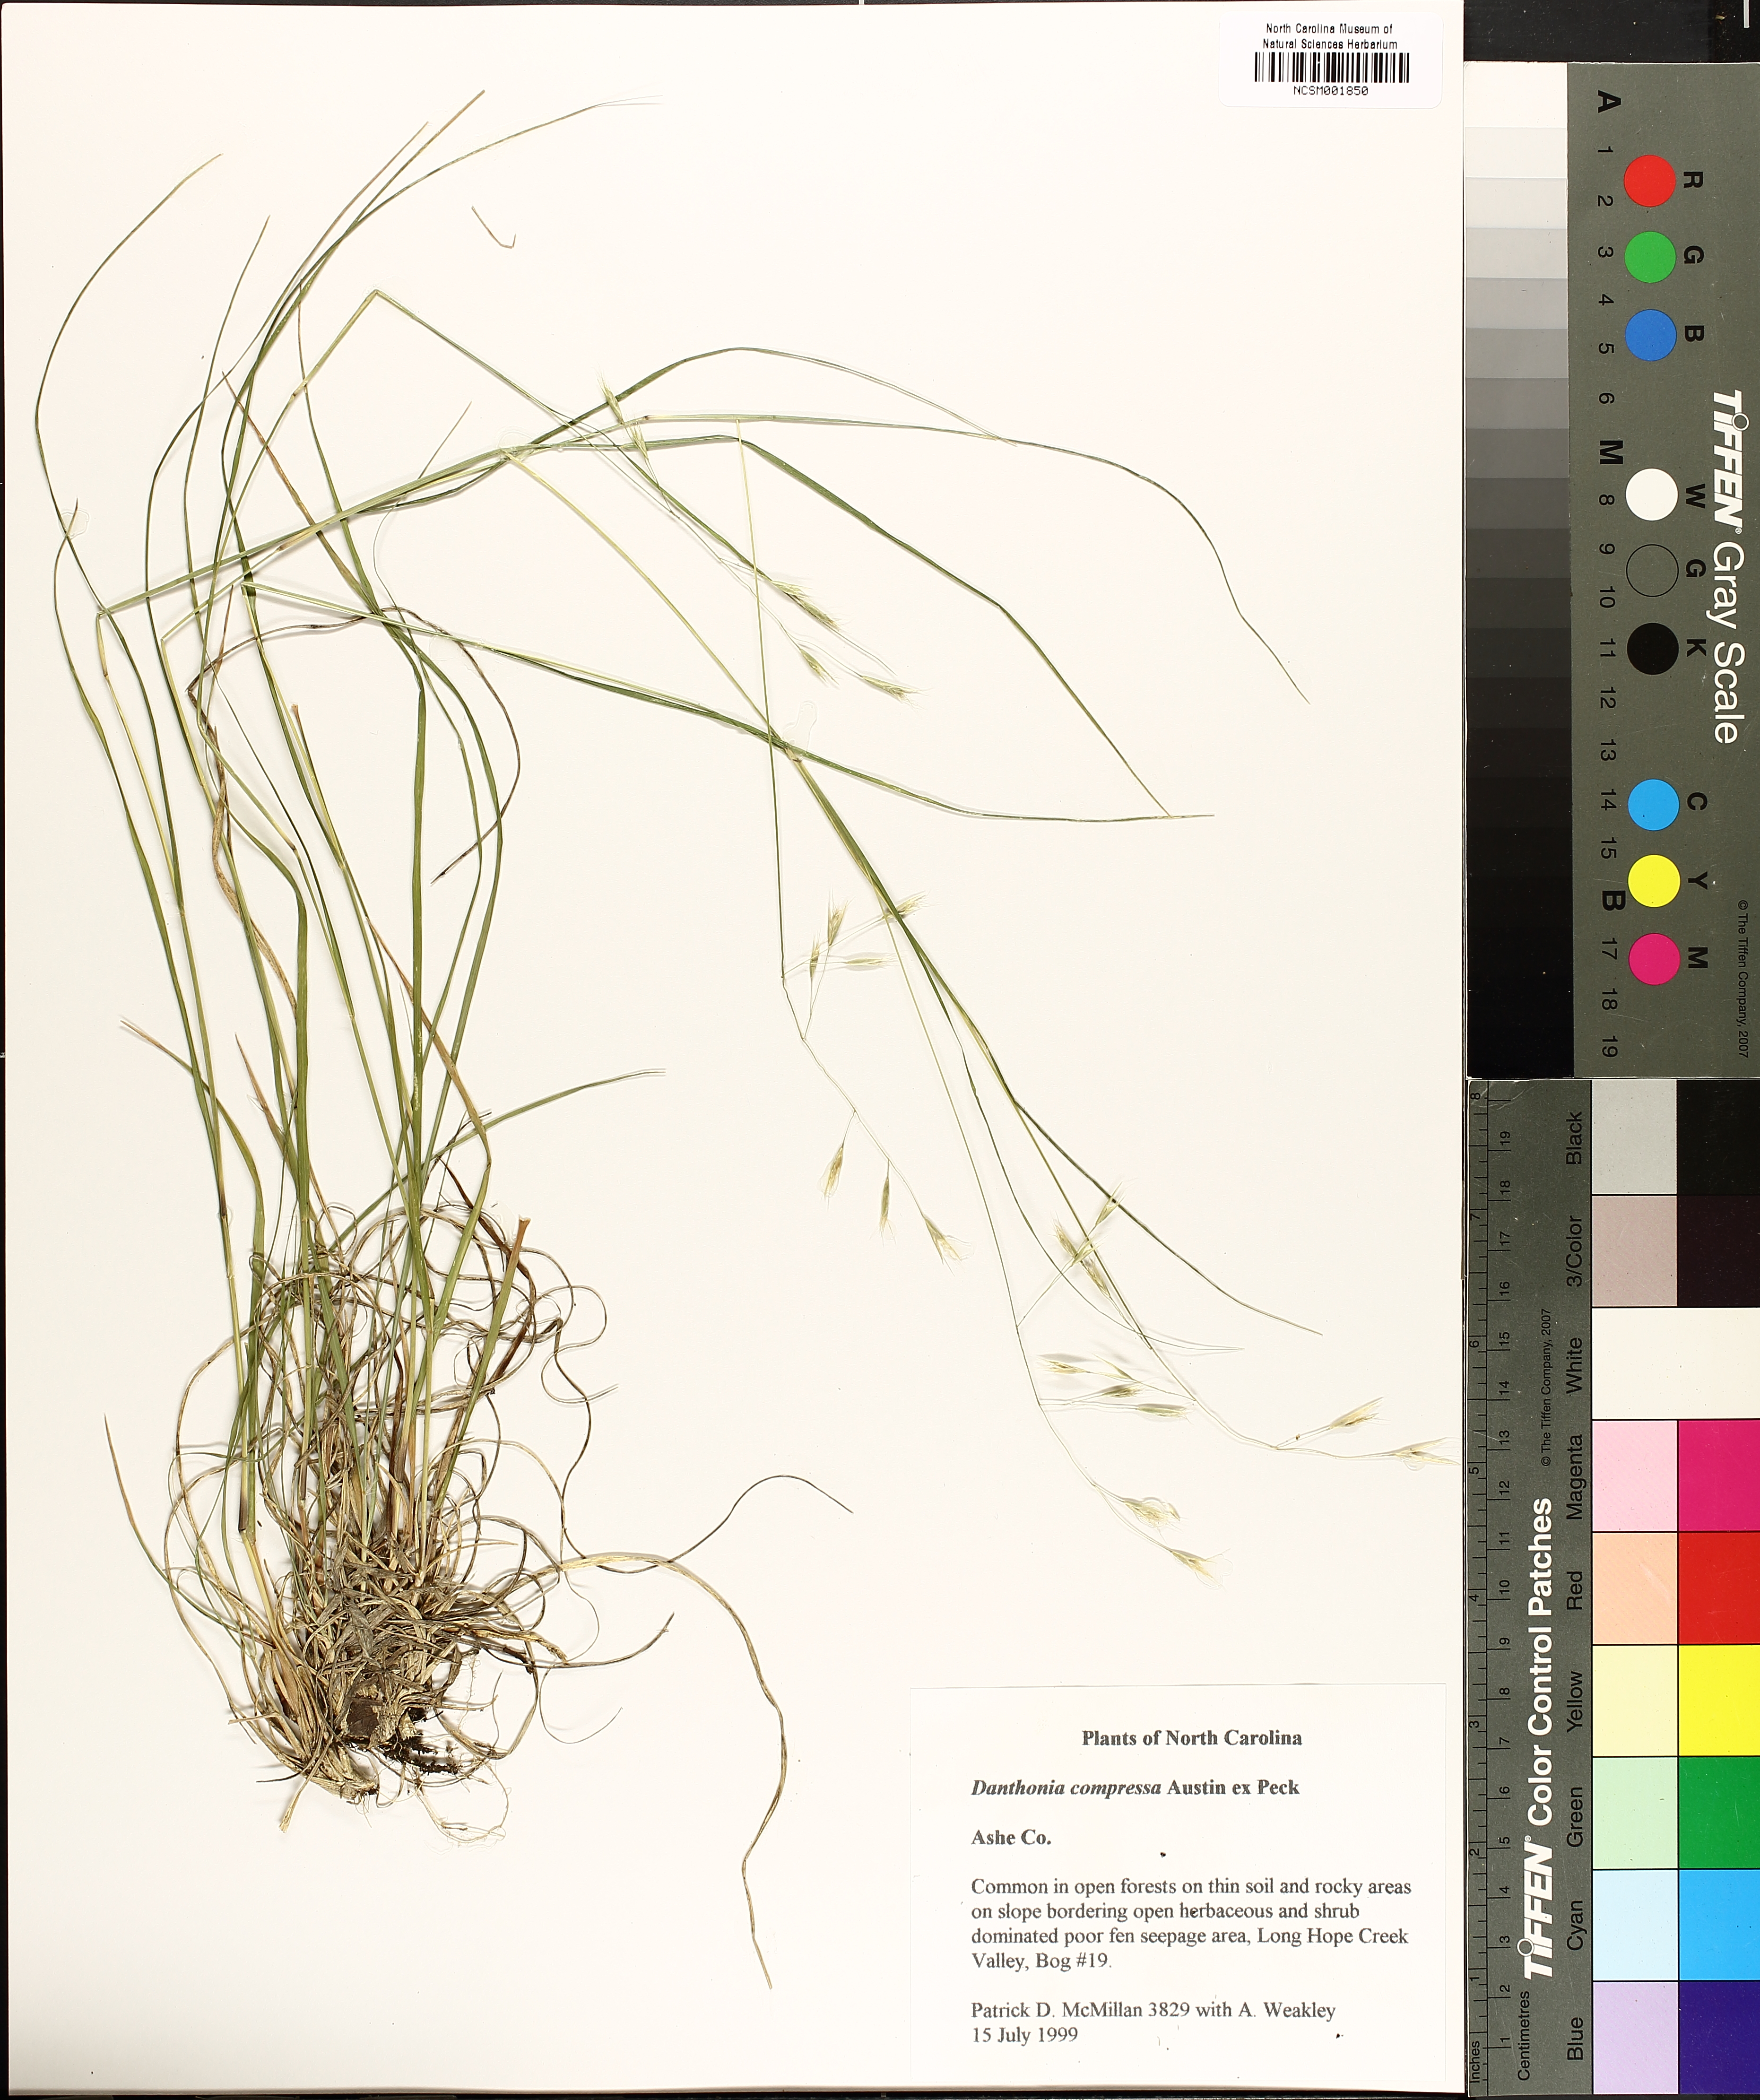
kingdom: Plantae
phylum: Tracheophyta
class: Liliopsida
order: Poales
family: Poaceae
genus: Danthonia
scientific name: Danthonia compressa
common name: Flat-stem oat grass
